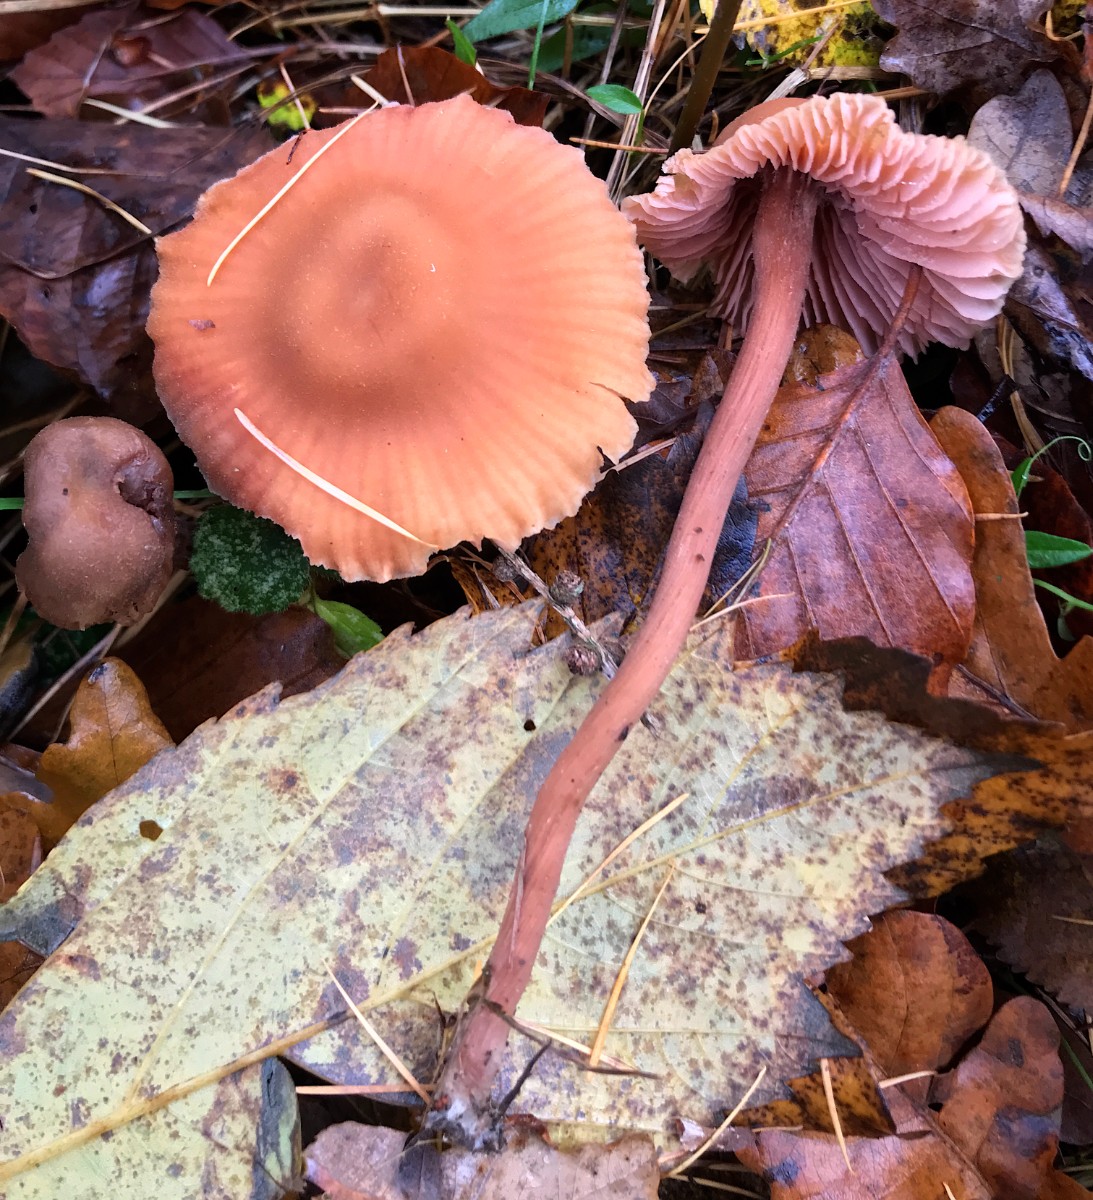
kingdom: Fungi
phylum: Basidiomycota
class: Agaricomycetes
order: Agaricales
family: Hydnangiaceae
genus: Laccaria
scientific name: Laccaria laccata
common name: rød ametysthat
